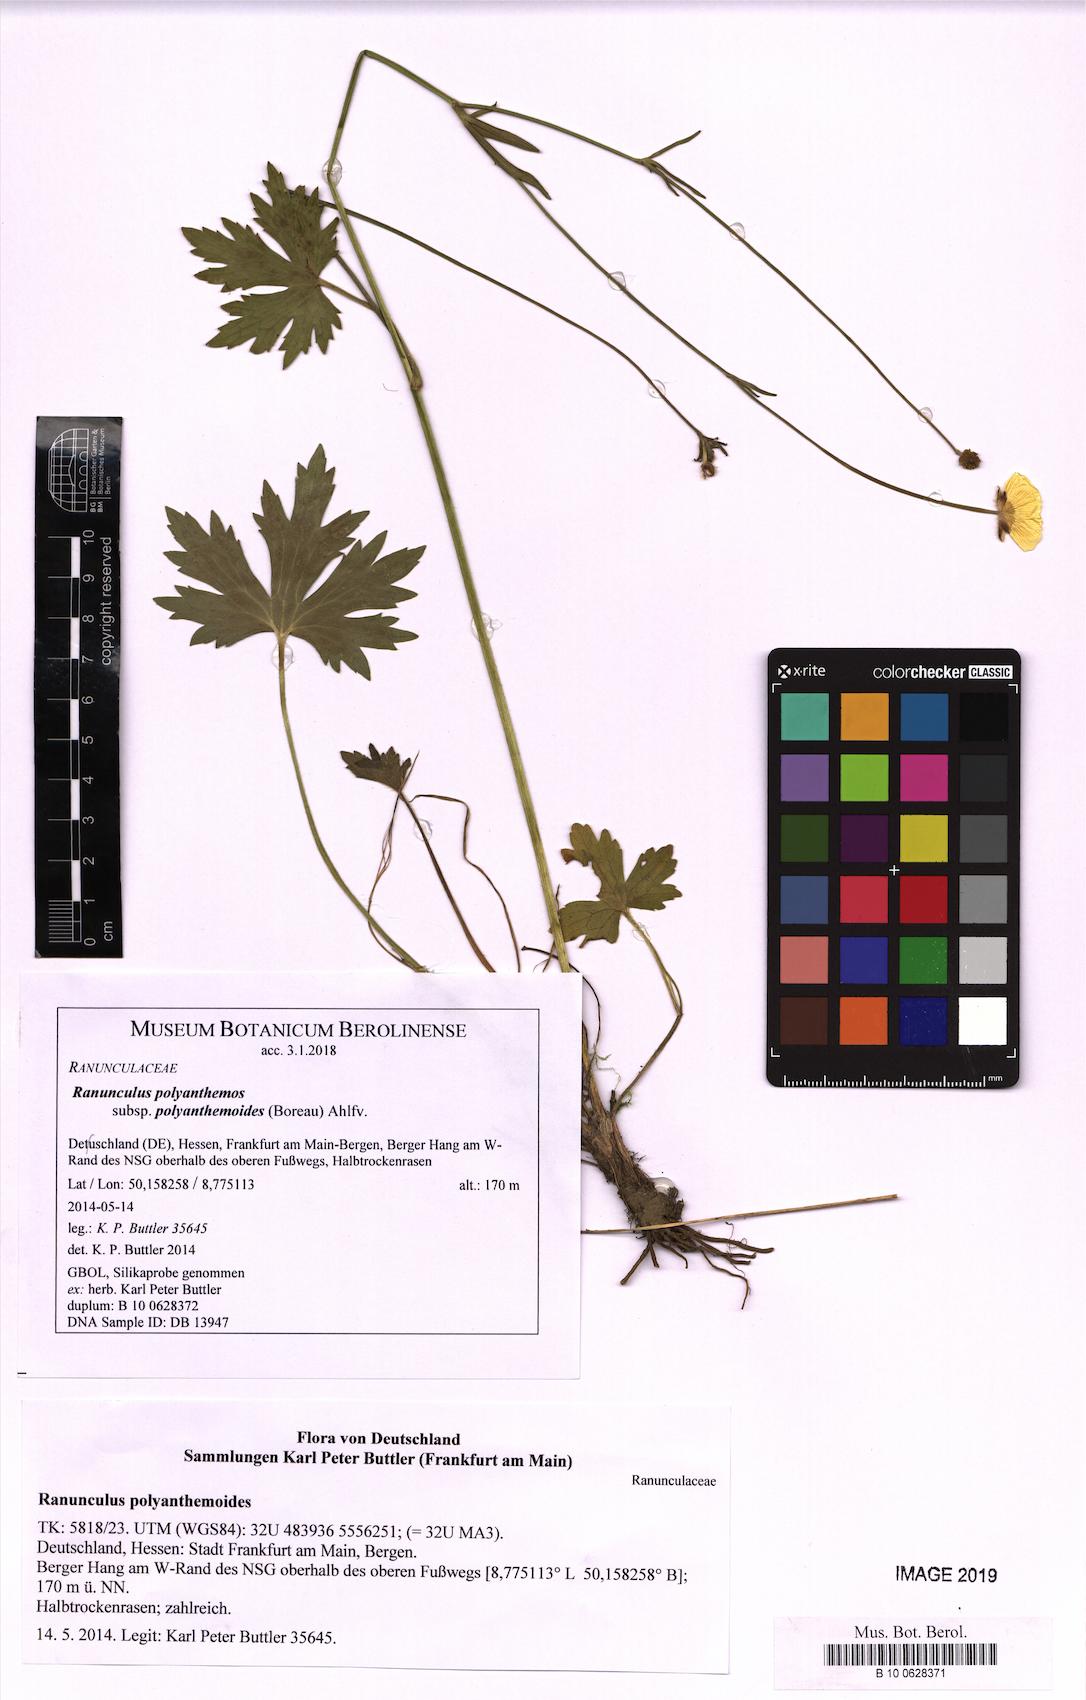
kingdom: Plantae
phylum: Tracheophyta
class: Magnoliopsida
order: Ranunculales
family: Ranunculaceae
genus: Ranunculus
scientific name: Ranunculus polyanthemos
